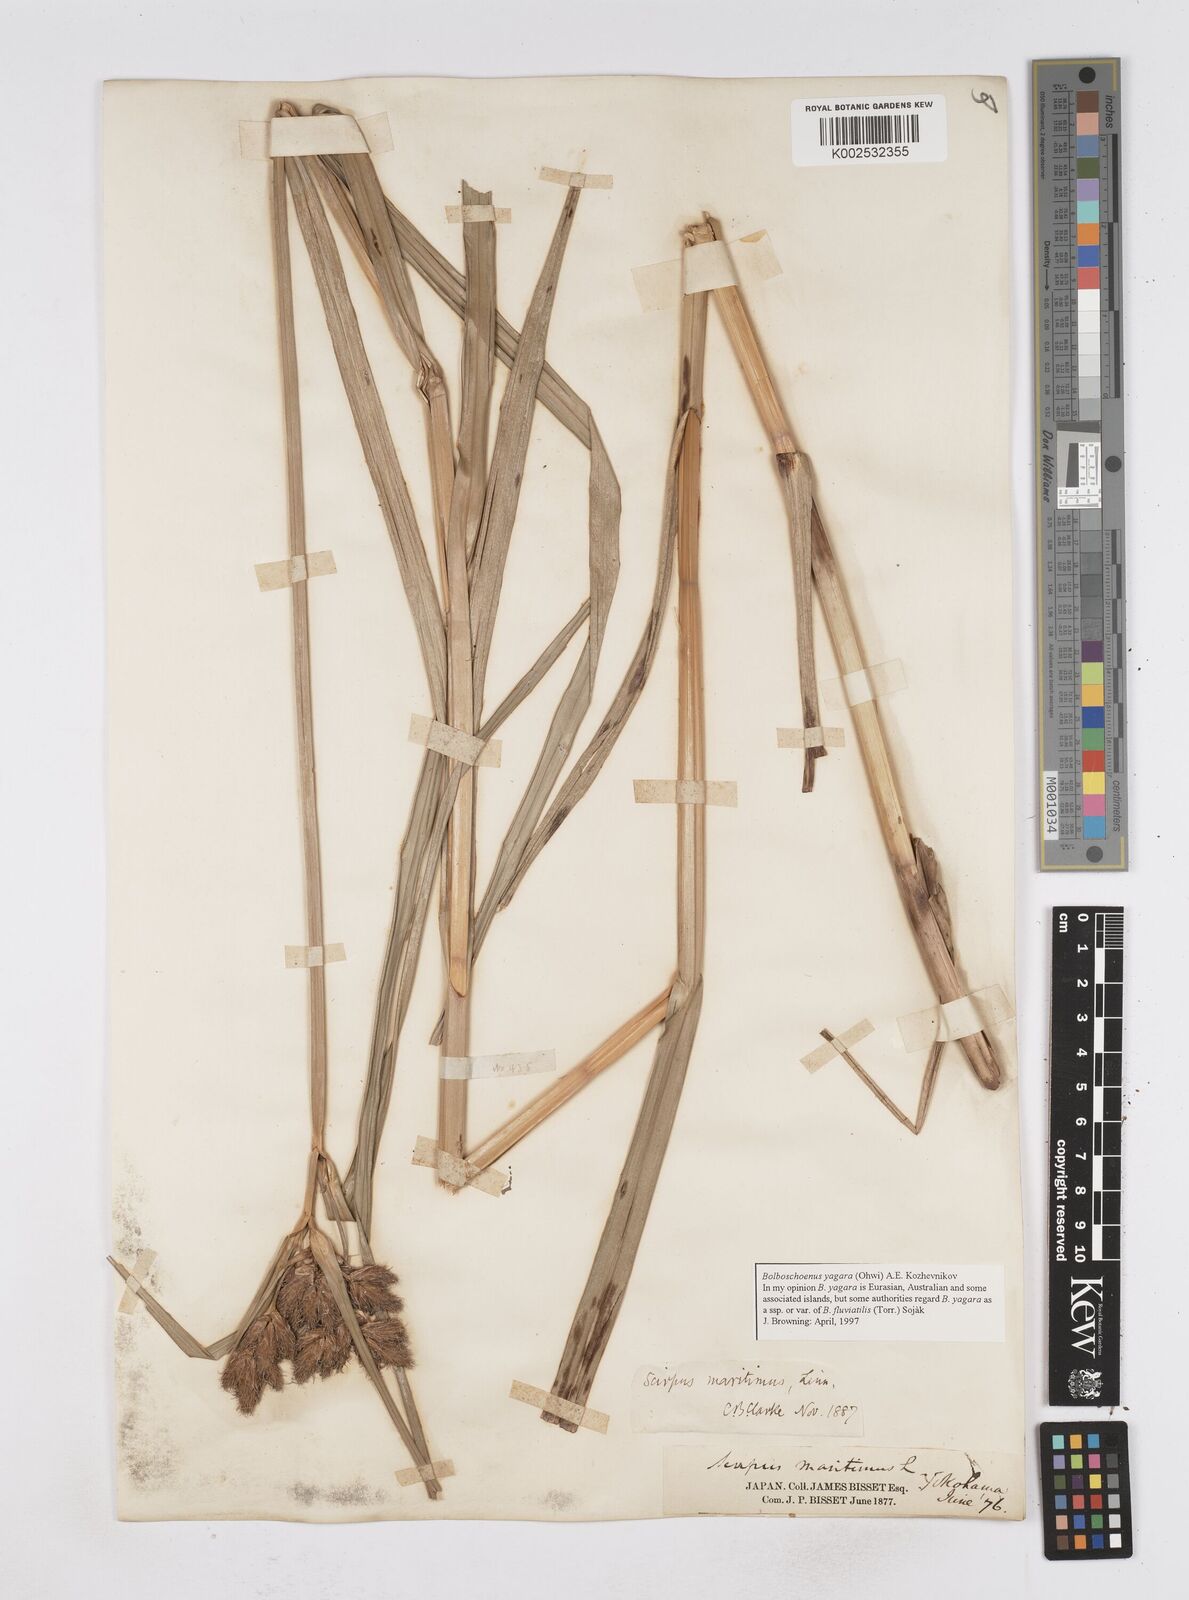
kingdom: Plantae
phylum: Tracheophyta
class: Liliopsida
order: Poales
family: Cyperaceae
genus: Bolboschoenus
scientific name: Bolboschoenus maritimus
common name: Sea club-rush
